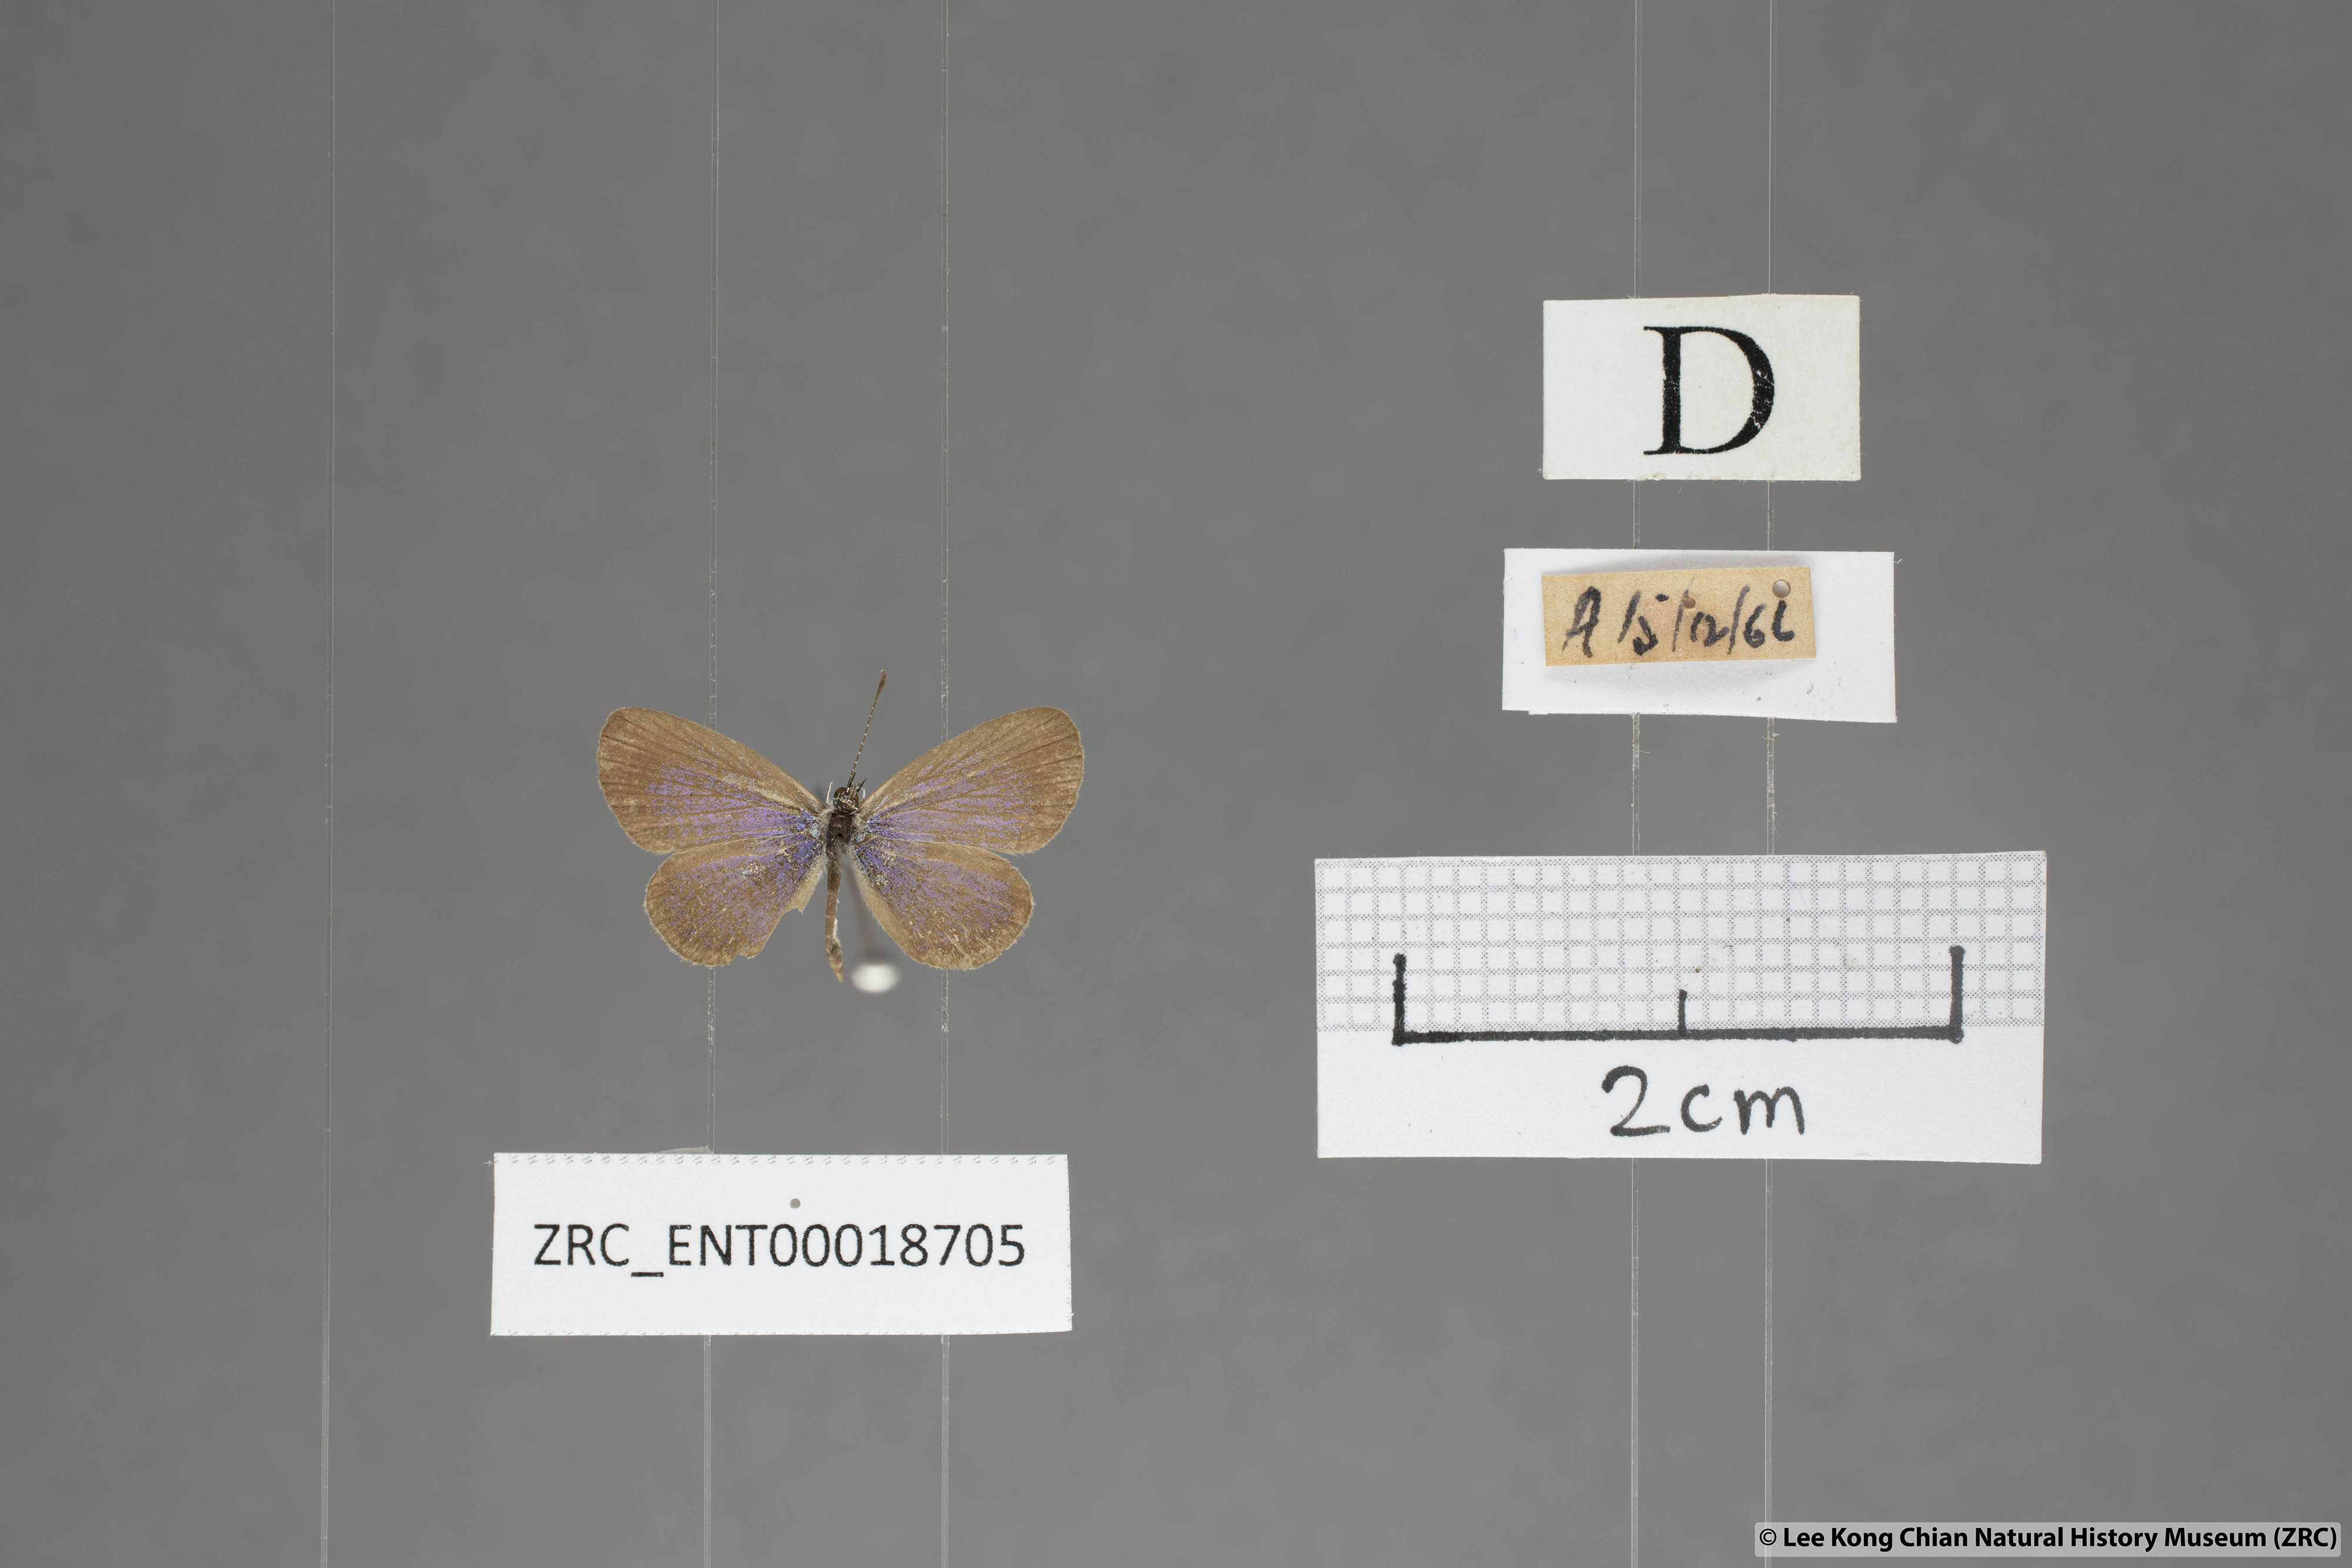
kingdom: Animalia
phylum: Arthropoda
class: Insecta
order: Lepidoptera
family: Lycaenidae
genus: Zizula
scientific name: Zizula hylax
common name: Gaika blue
